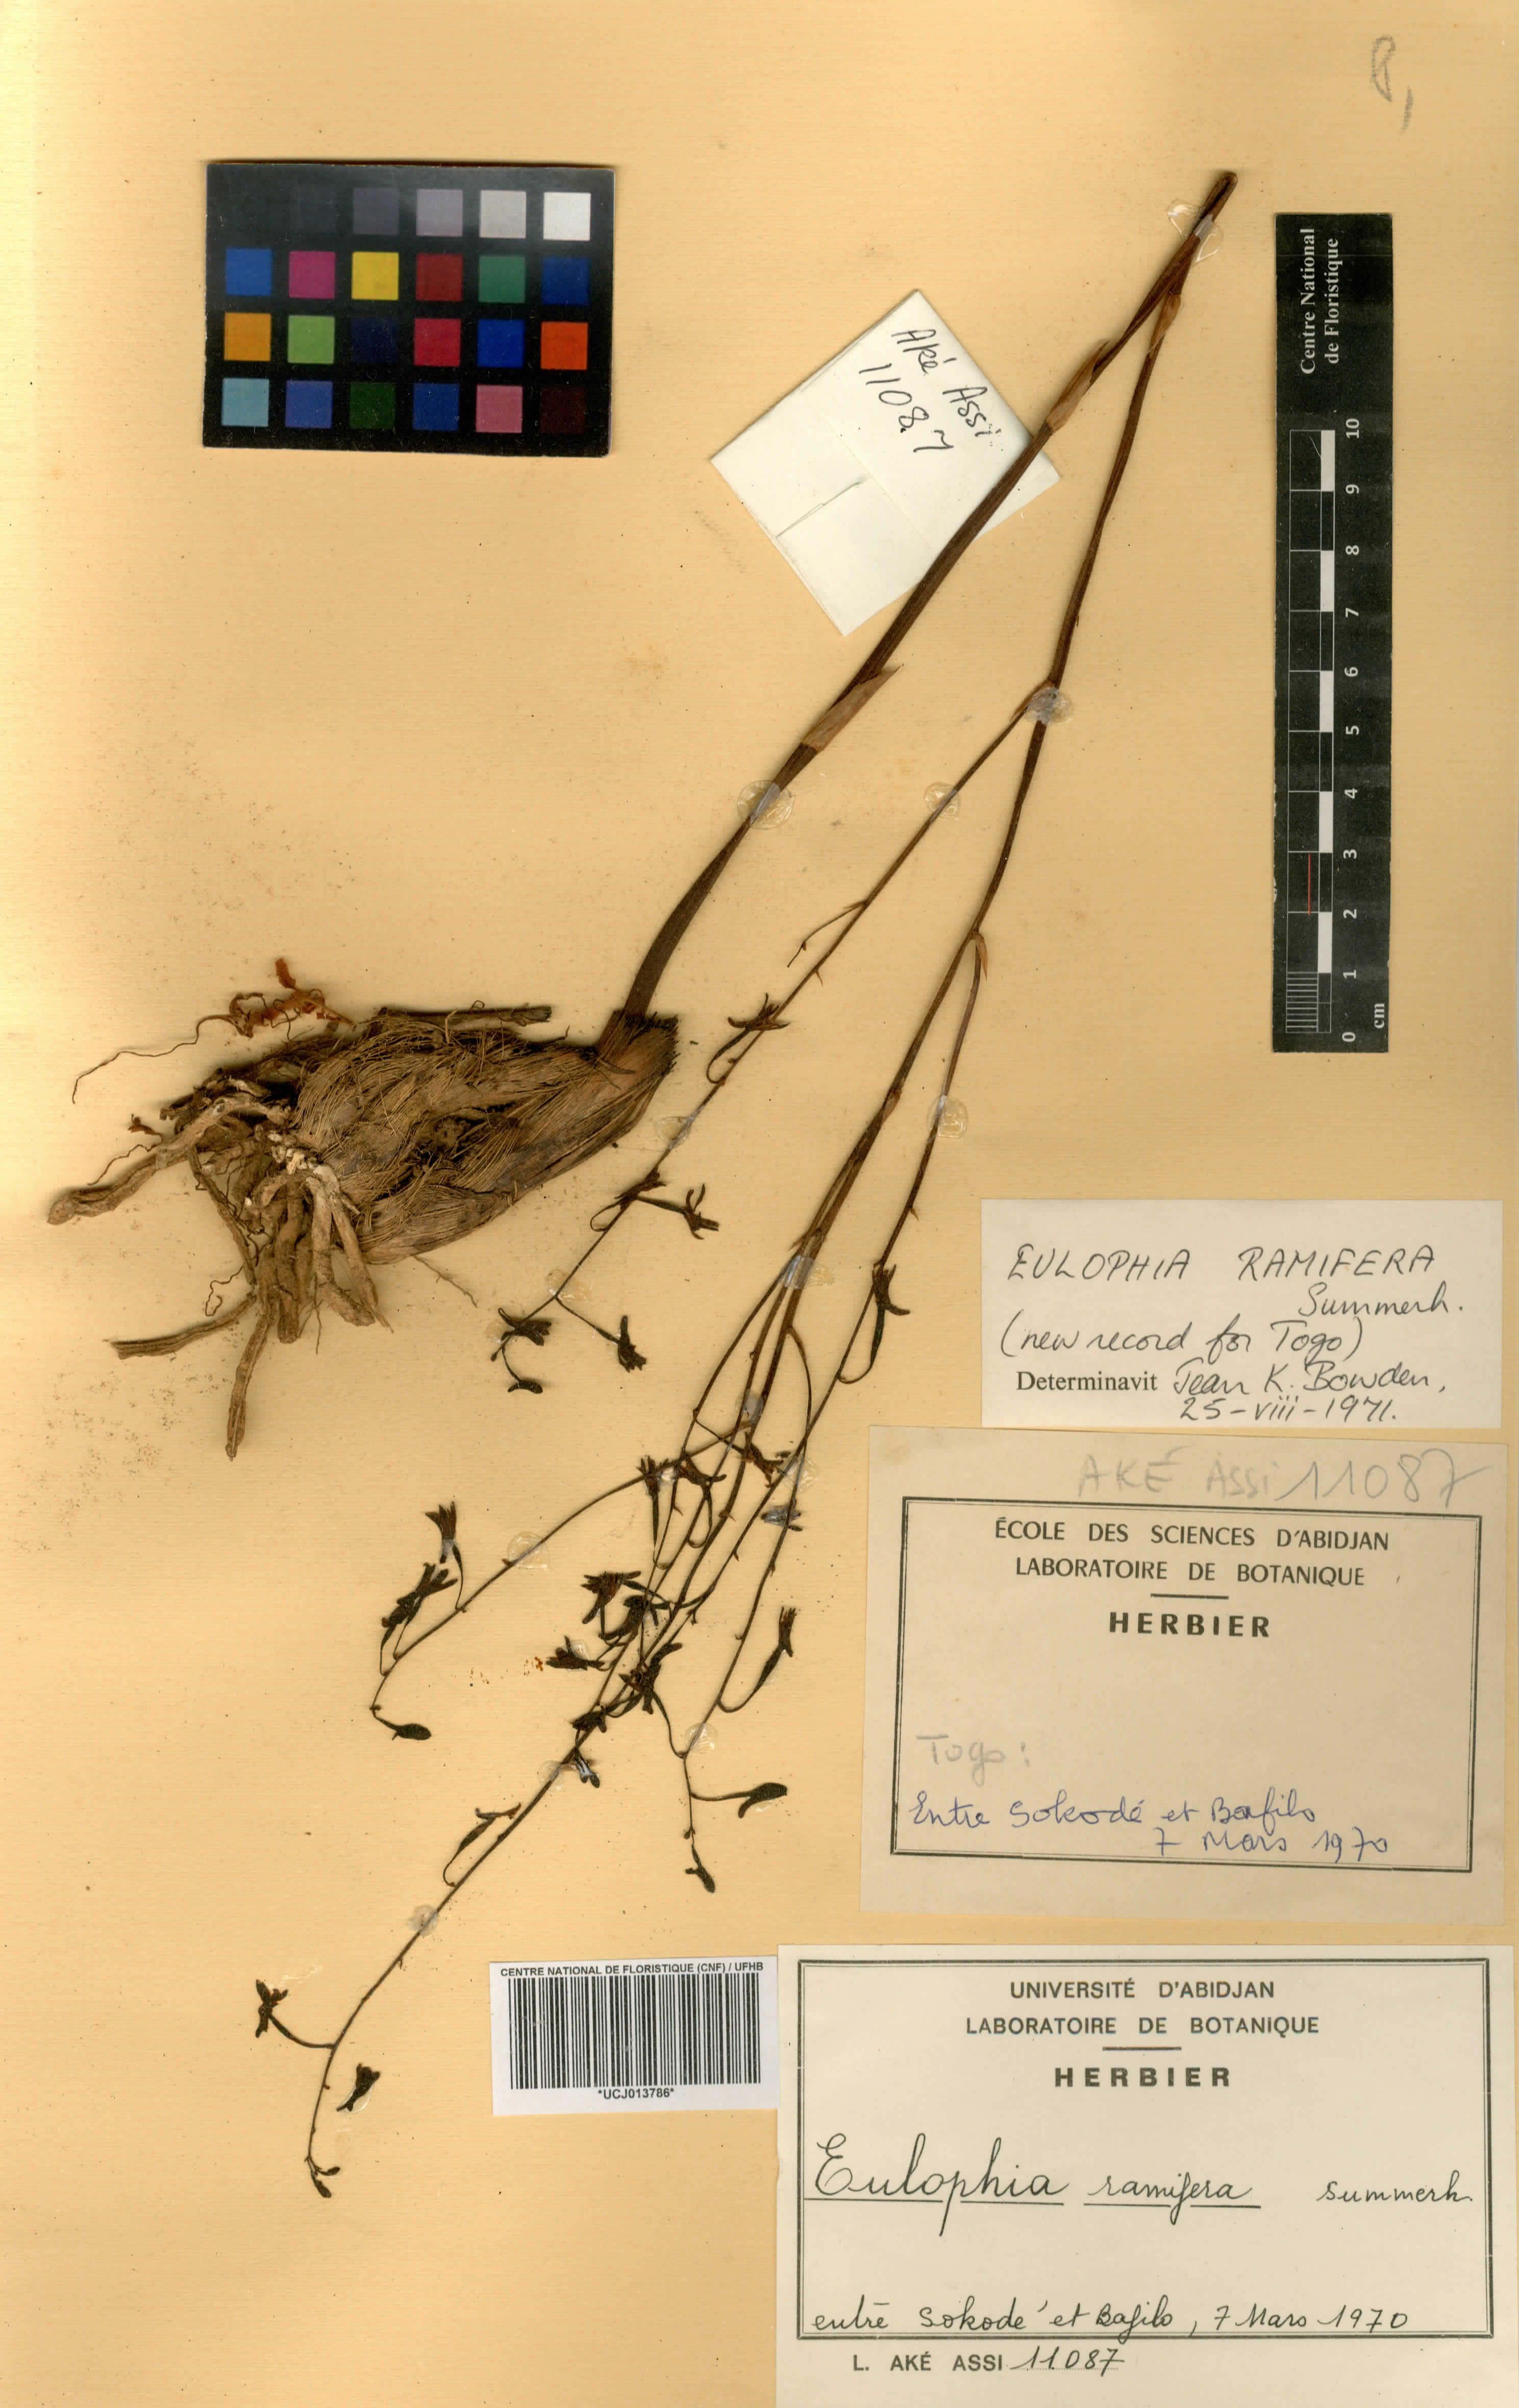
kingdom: Plantae
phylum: Tracheophyta
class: Liliopsida
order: Asparagales
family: Orchidaceae
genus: Eulophia
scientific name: Eulophia odontoglossa
